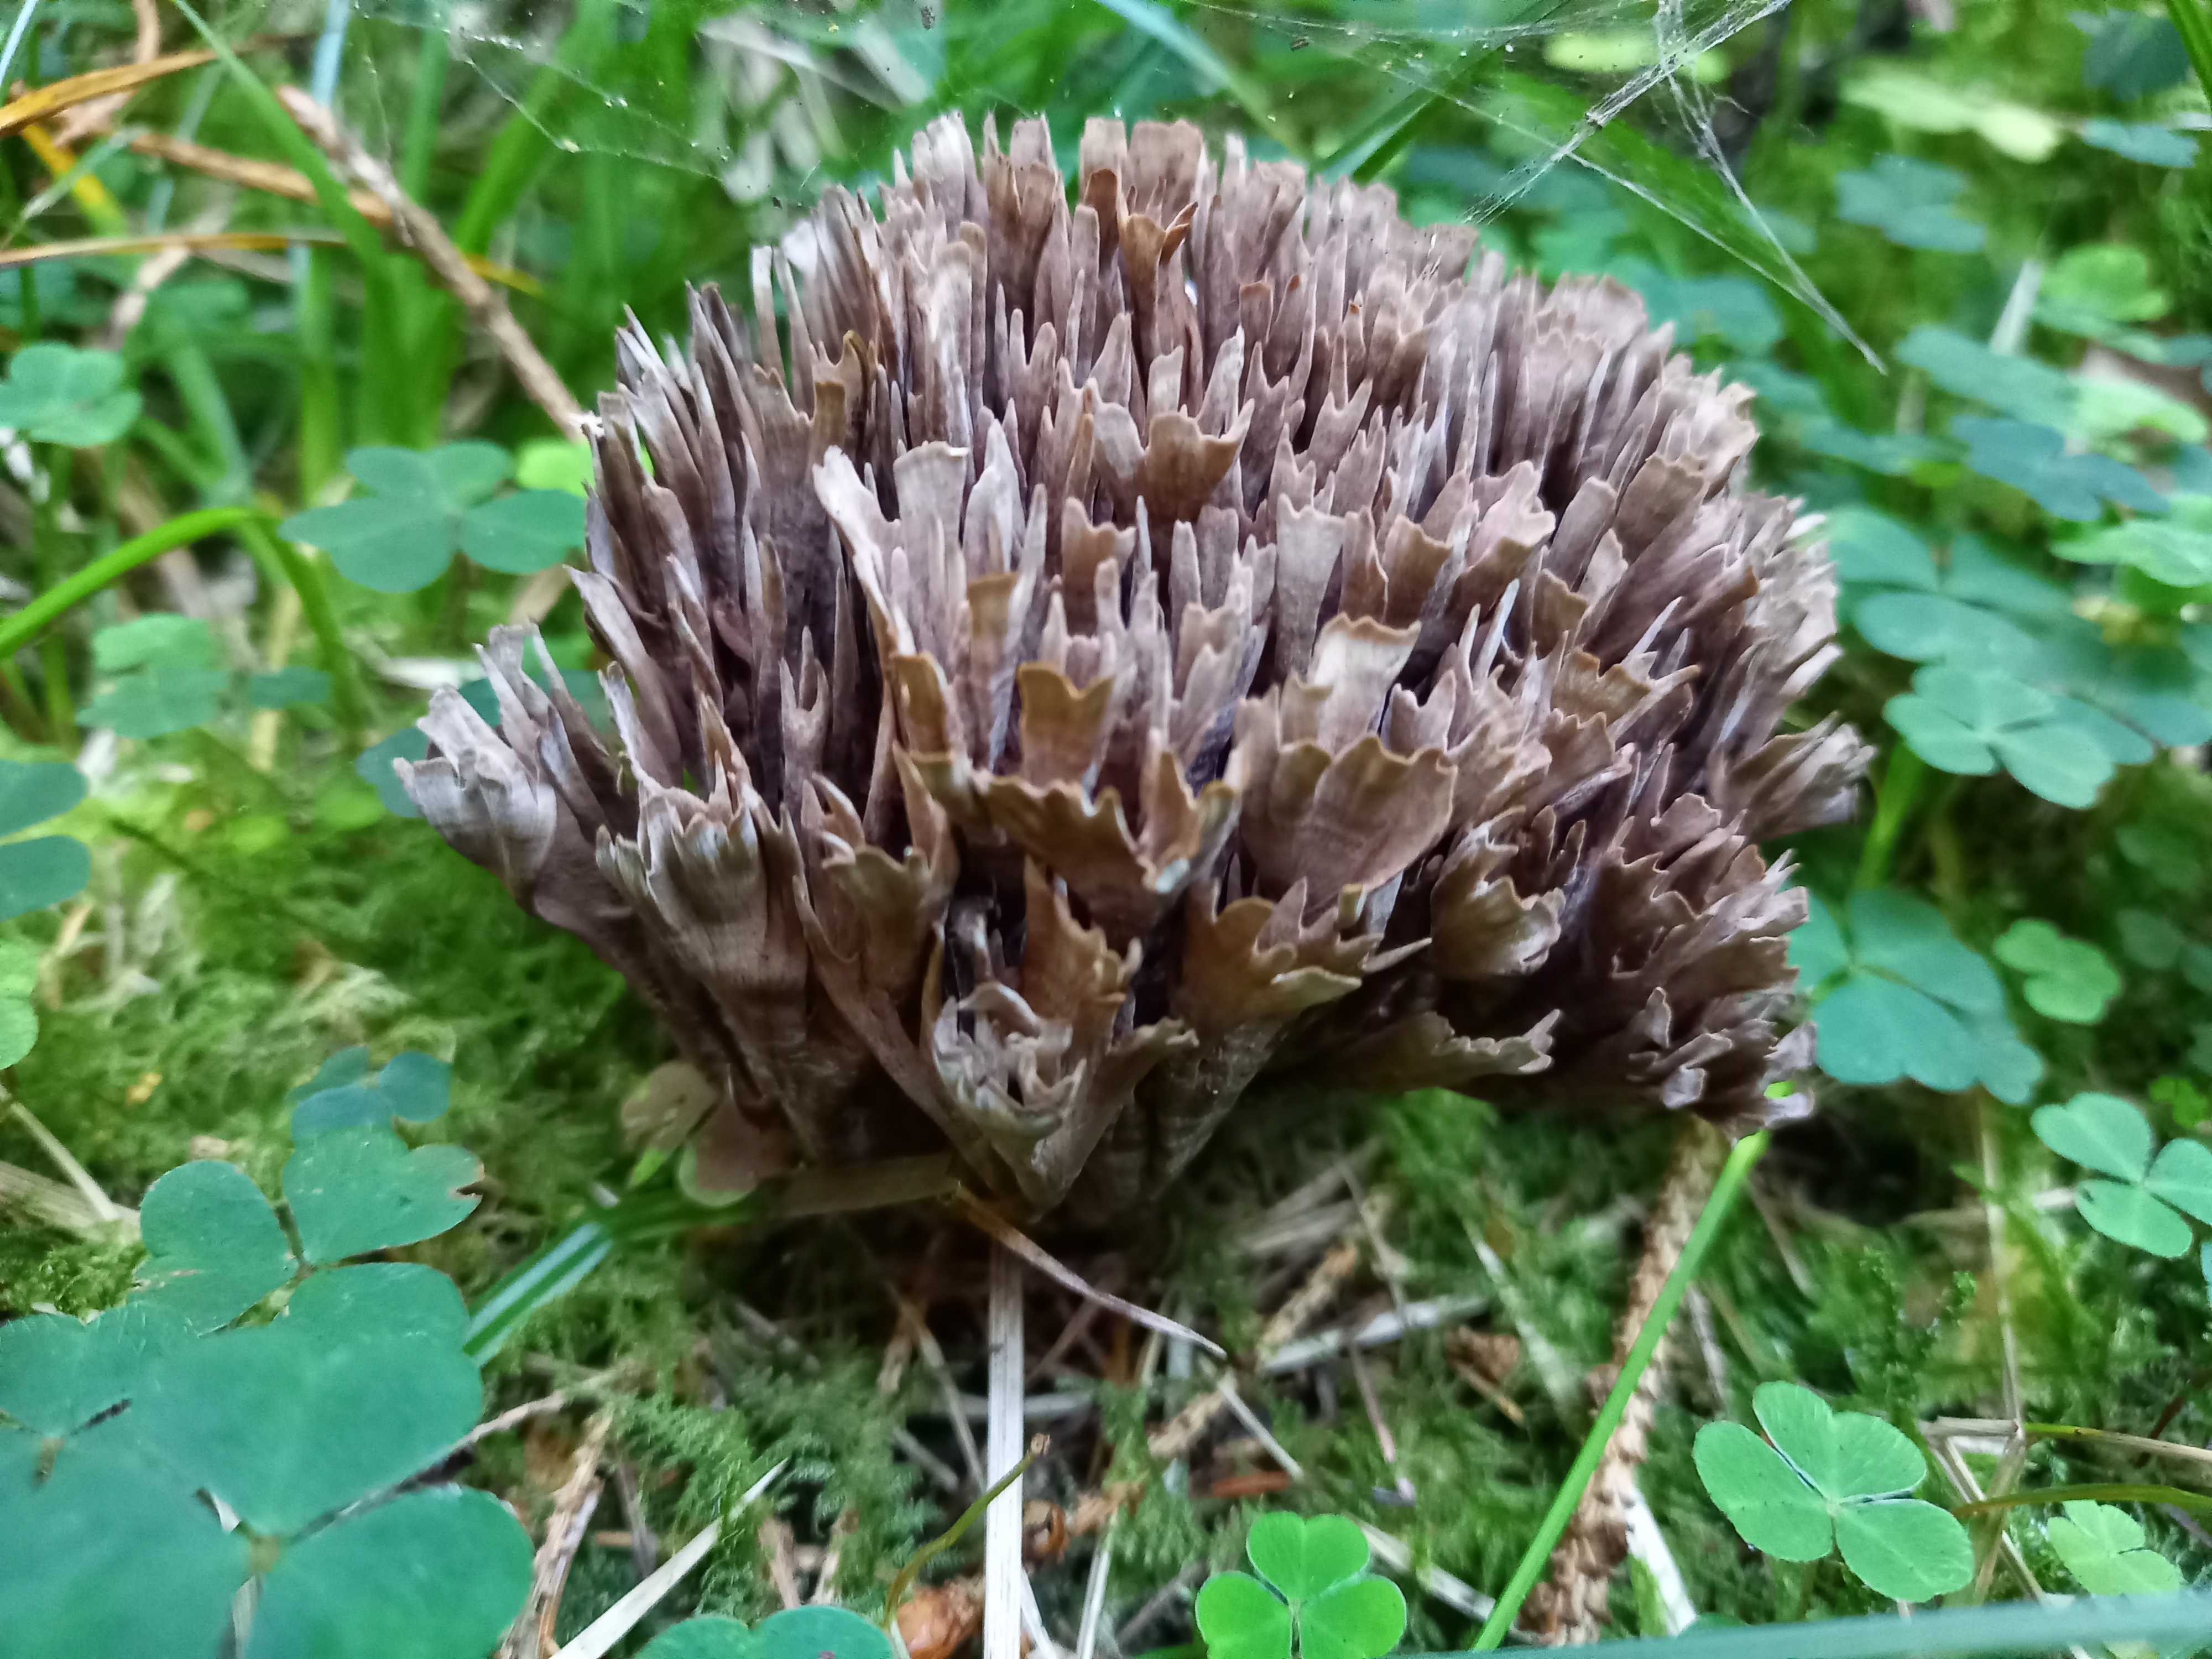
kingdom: Fungi
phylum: Basidiomycota
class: Agaricomycetes
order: Thelephorales
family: Thelephoraceae
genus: Thelephora
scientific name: Thelephora palmata
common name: grenet frynsesvamp
